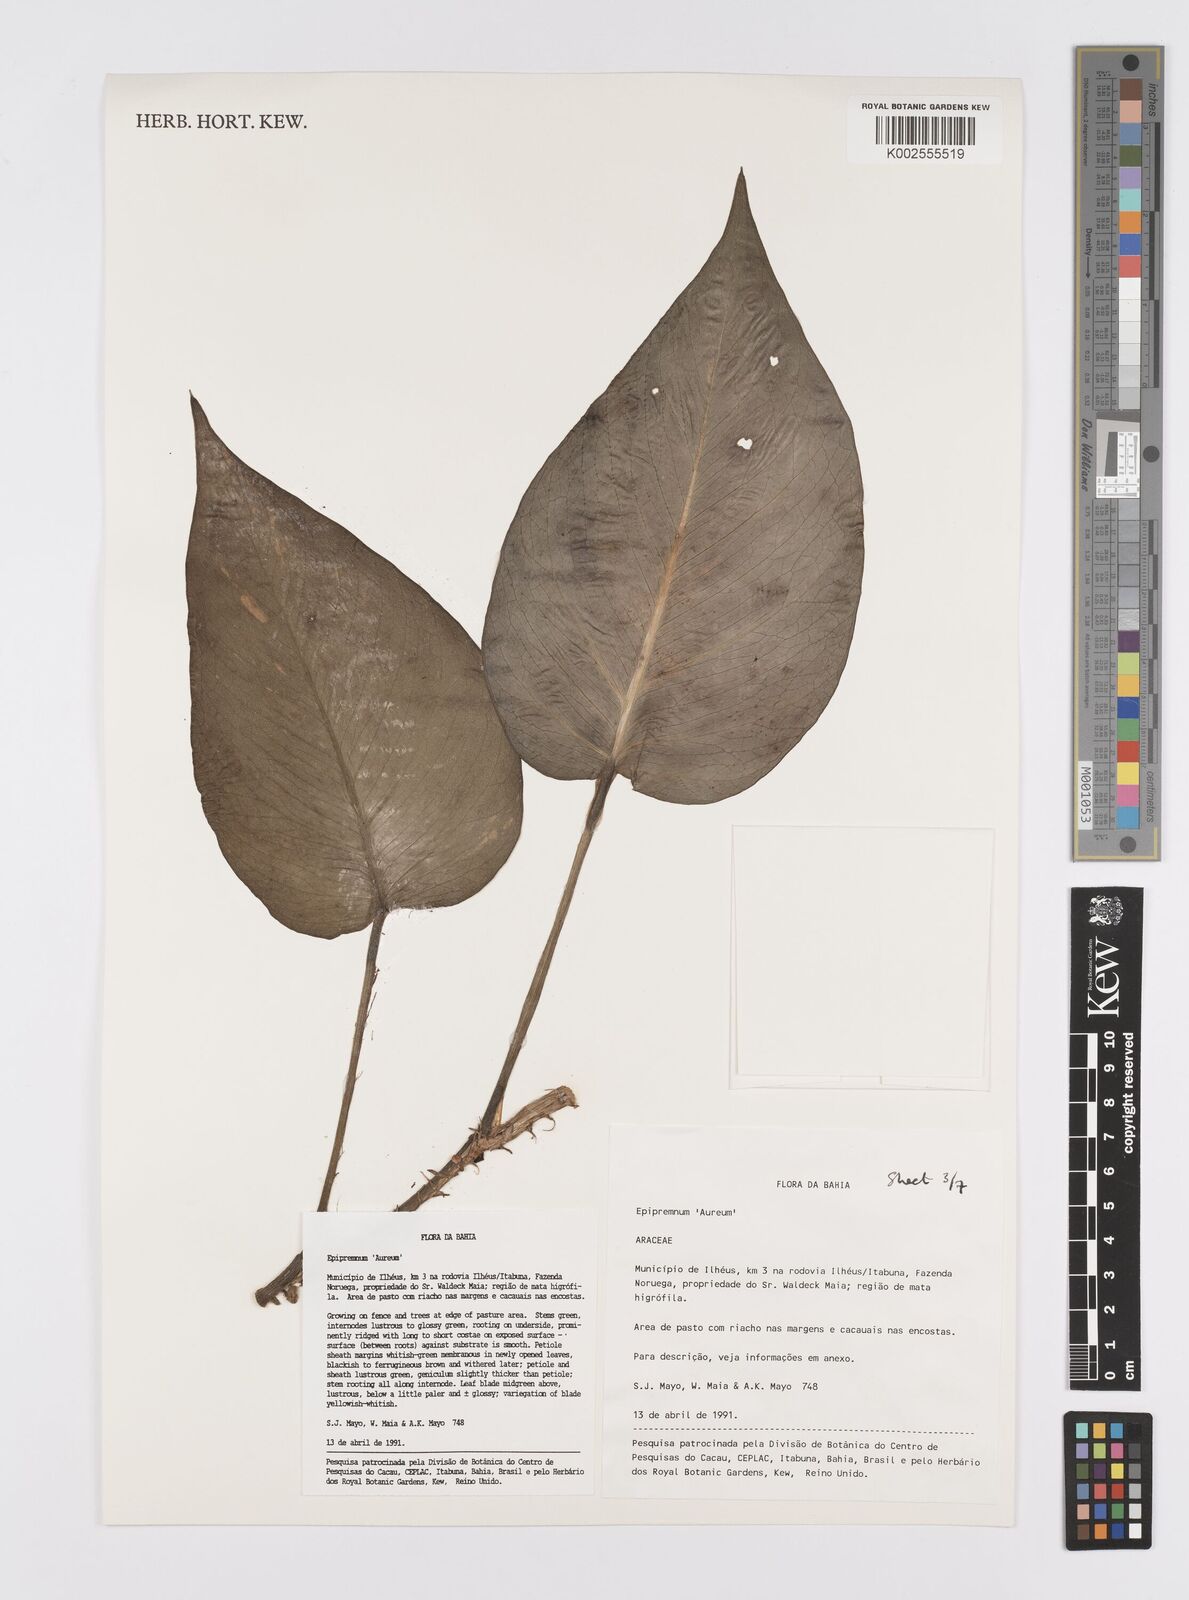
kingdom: Plantae
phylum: Tracheophyta
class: Liliopsida
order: Alismatales
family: Araceae
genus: Epipremnum
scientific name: Epipremnum aureum
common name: Golden hunter's-robe
